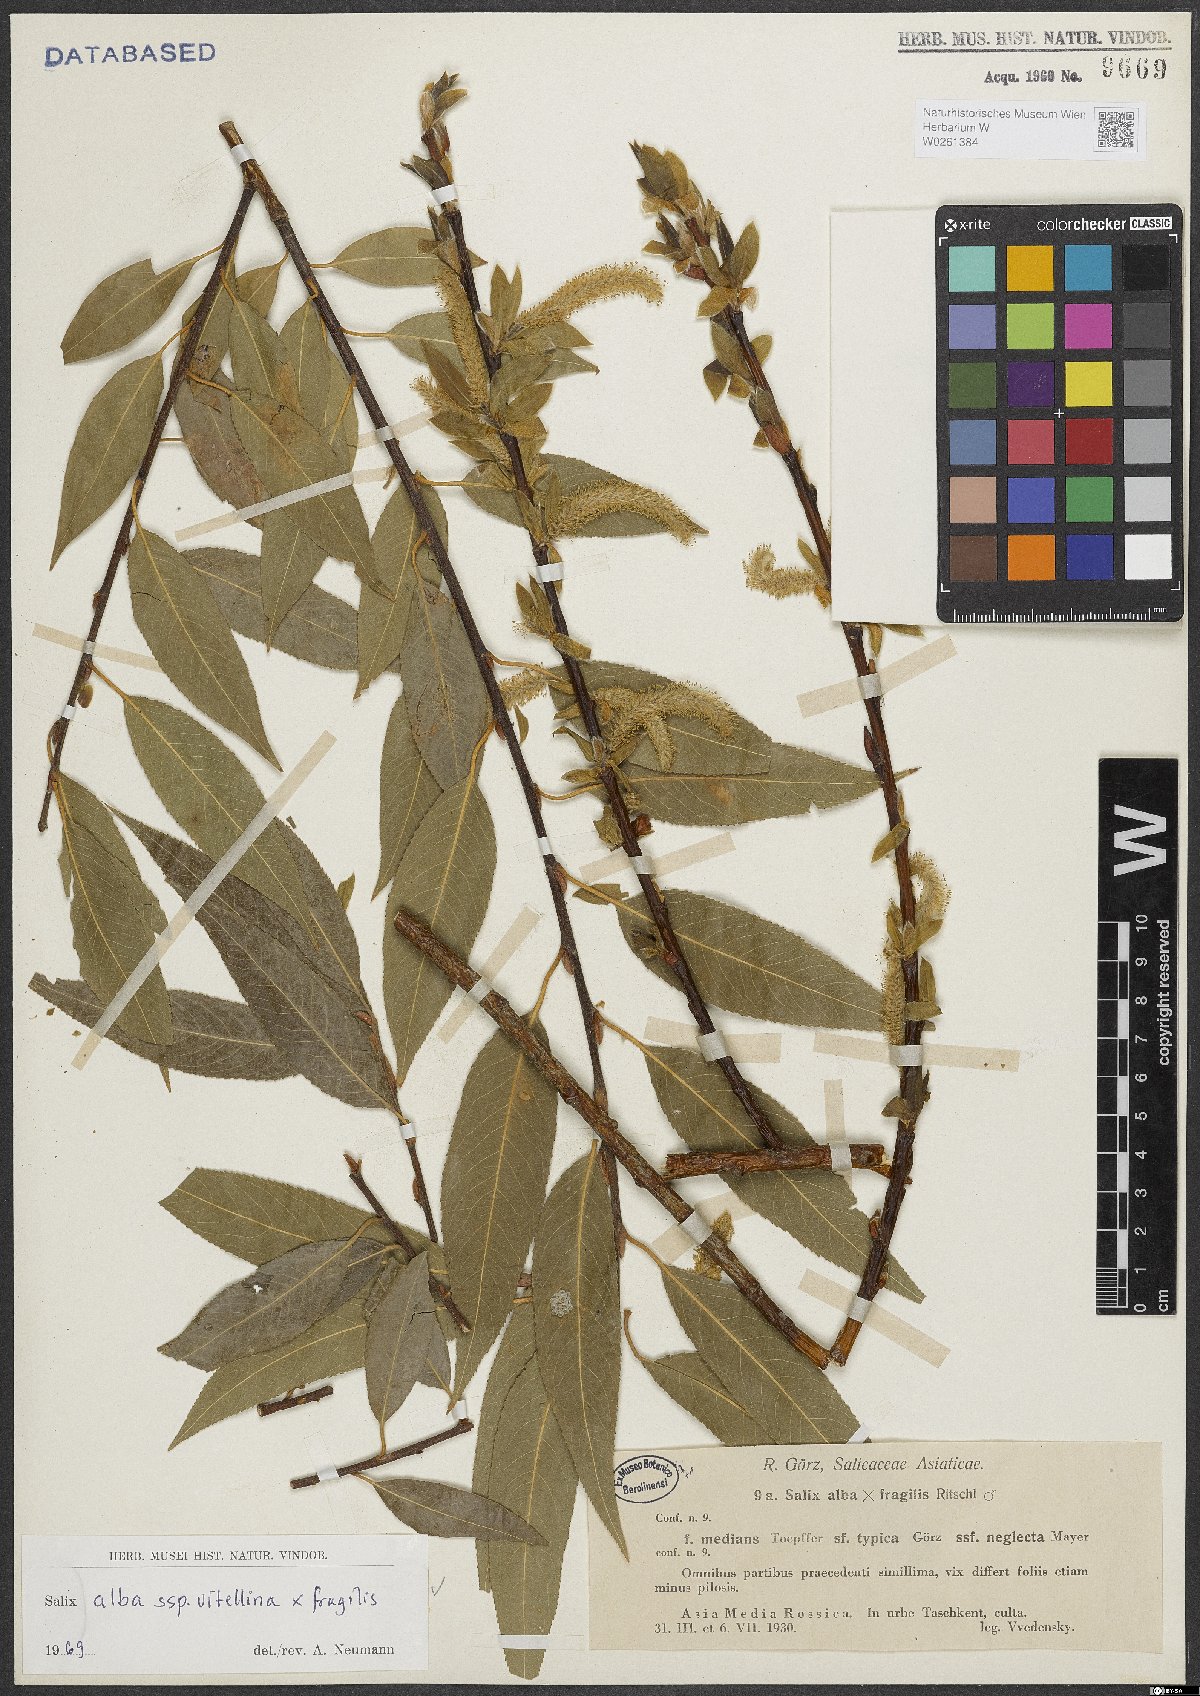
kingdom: Plantae
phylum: Tracheophyta
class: Magnoliopsida
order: Malpighiales
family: Salicaceae
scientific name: Salicaceae
